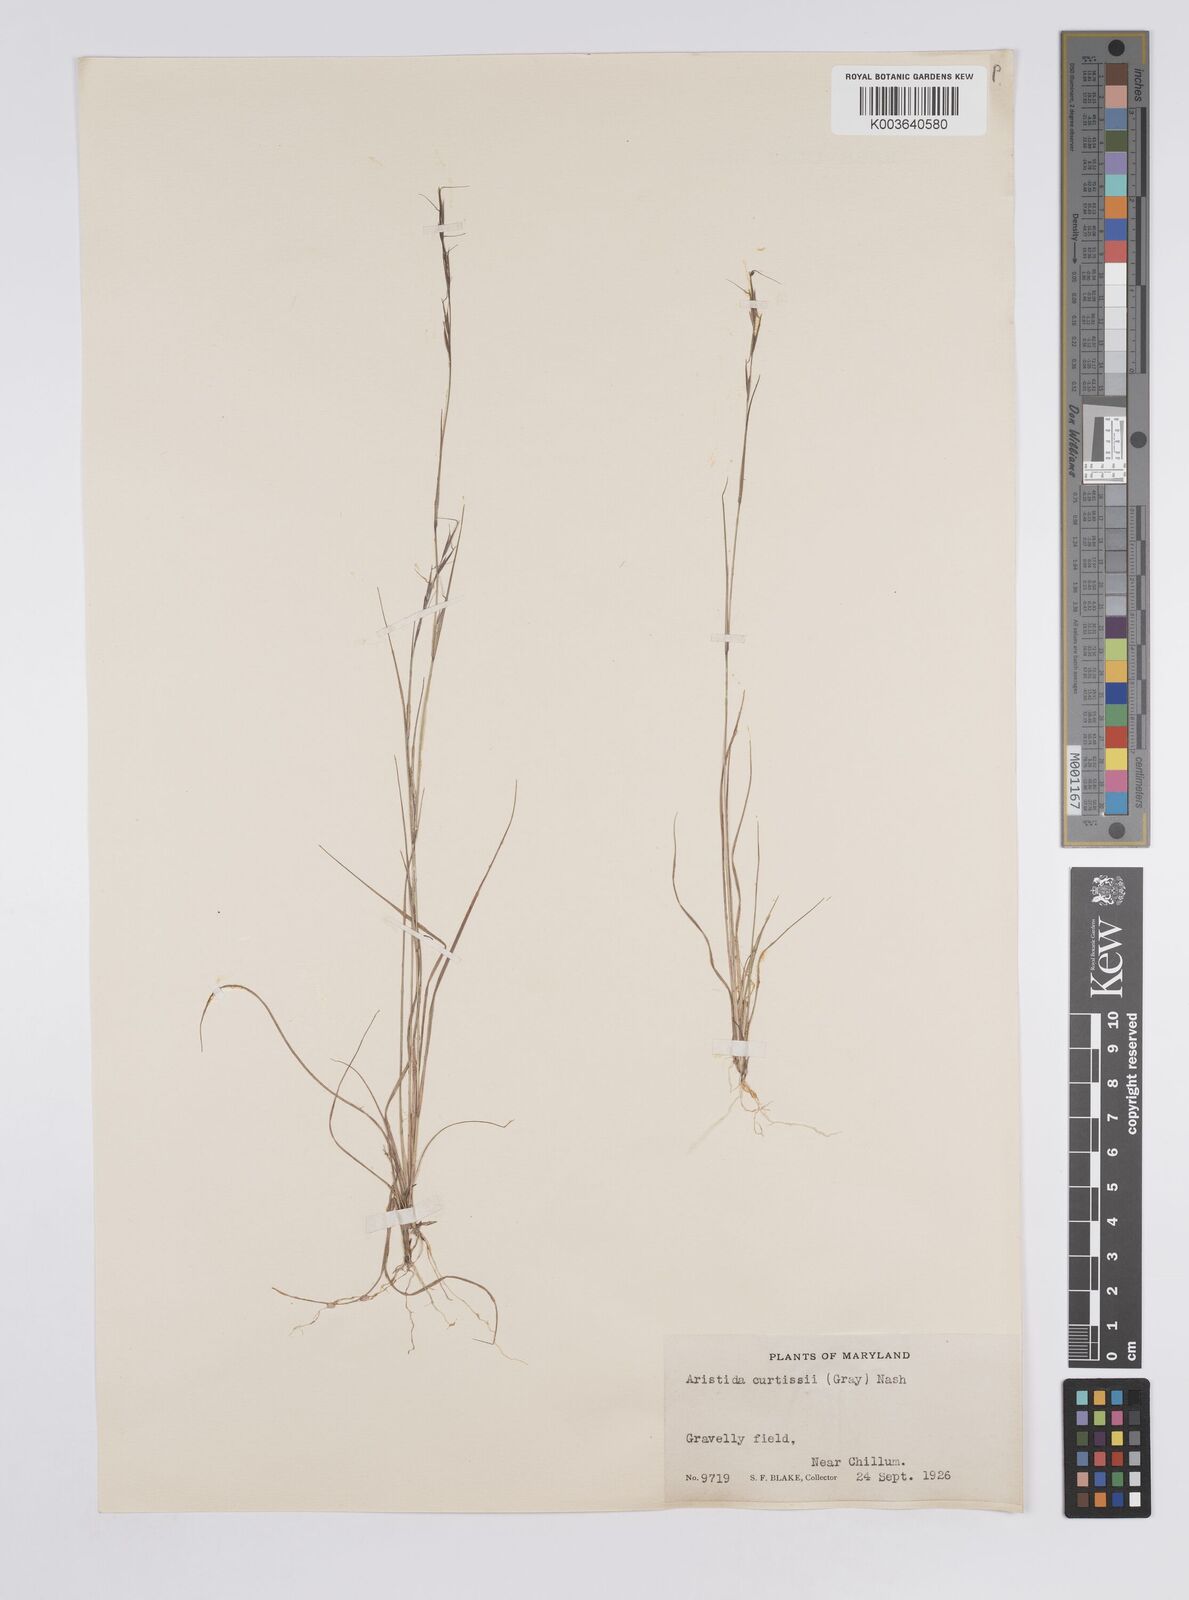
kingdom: Plantae
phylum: Tracheophyta
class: Liliopsida
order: Poales
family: Poaceae
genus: Aristida
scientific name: Aristida dichotoma
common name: Churchmouse three-awn
